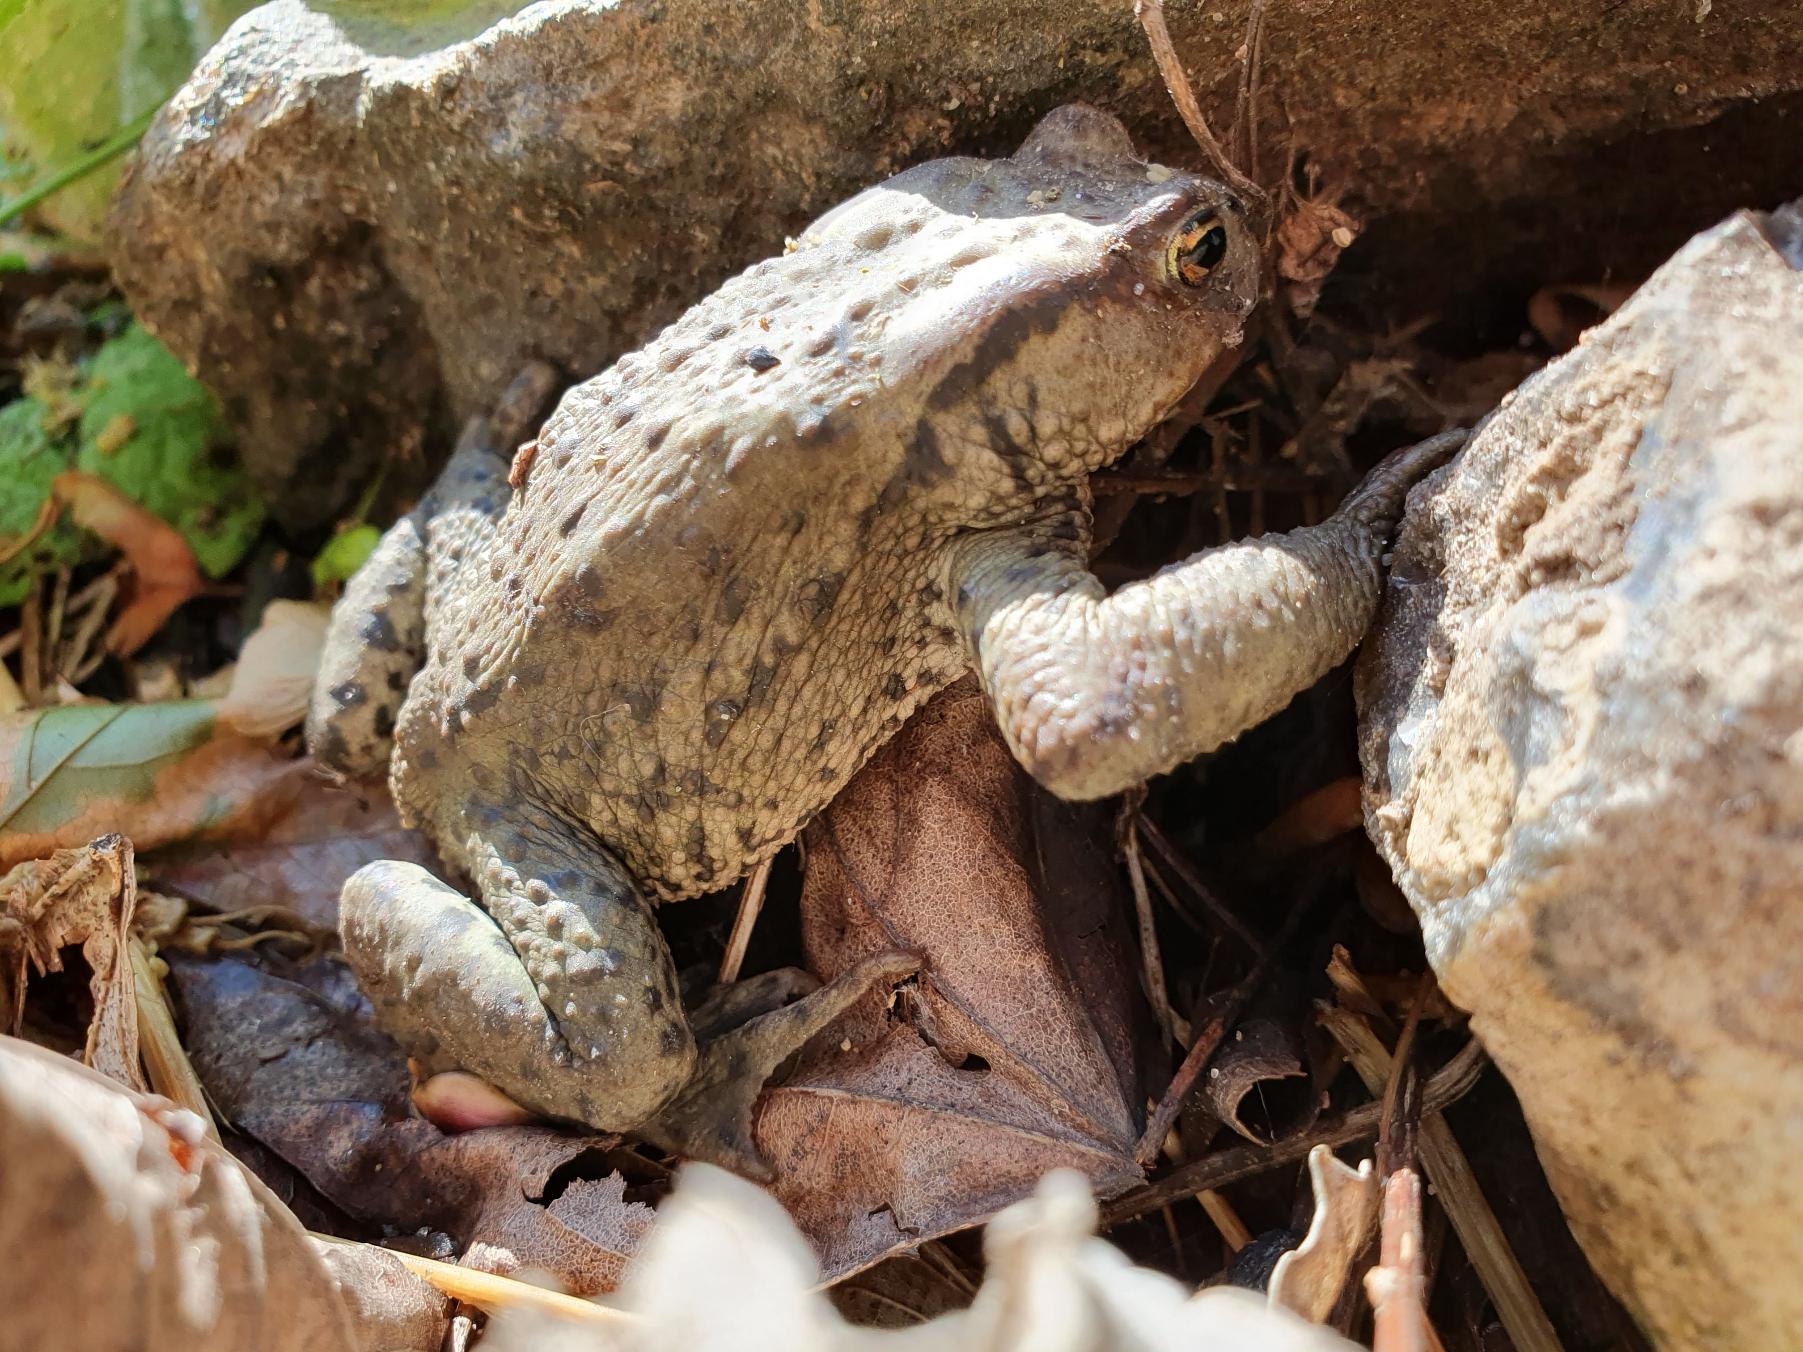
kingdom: Animalia
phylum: Chordata
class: Amphibia
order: Anura
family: Bufonidae
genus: Bufo
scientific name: Bufo bufo
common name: Skrubtudse
